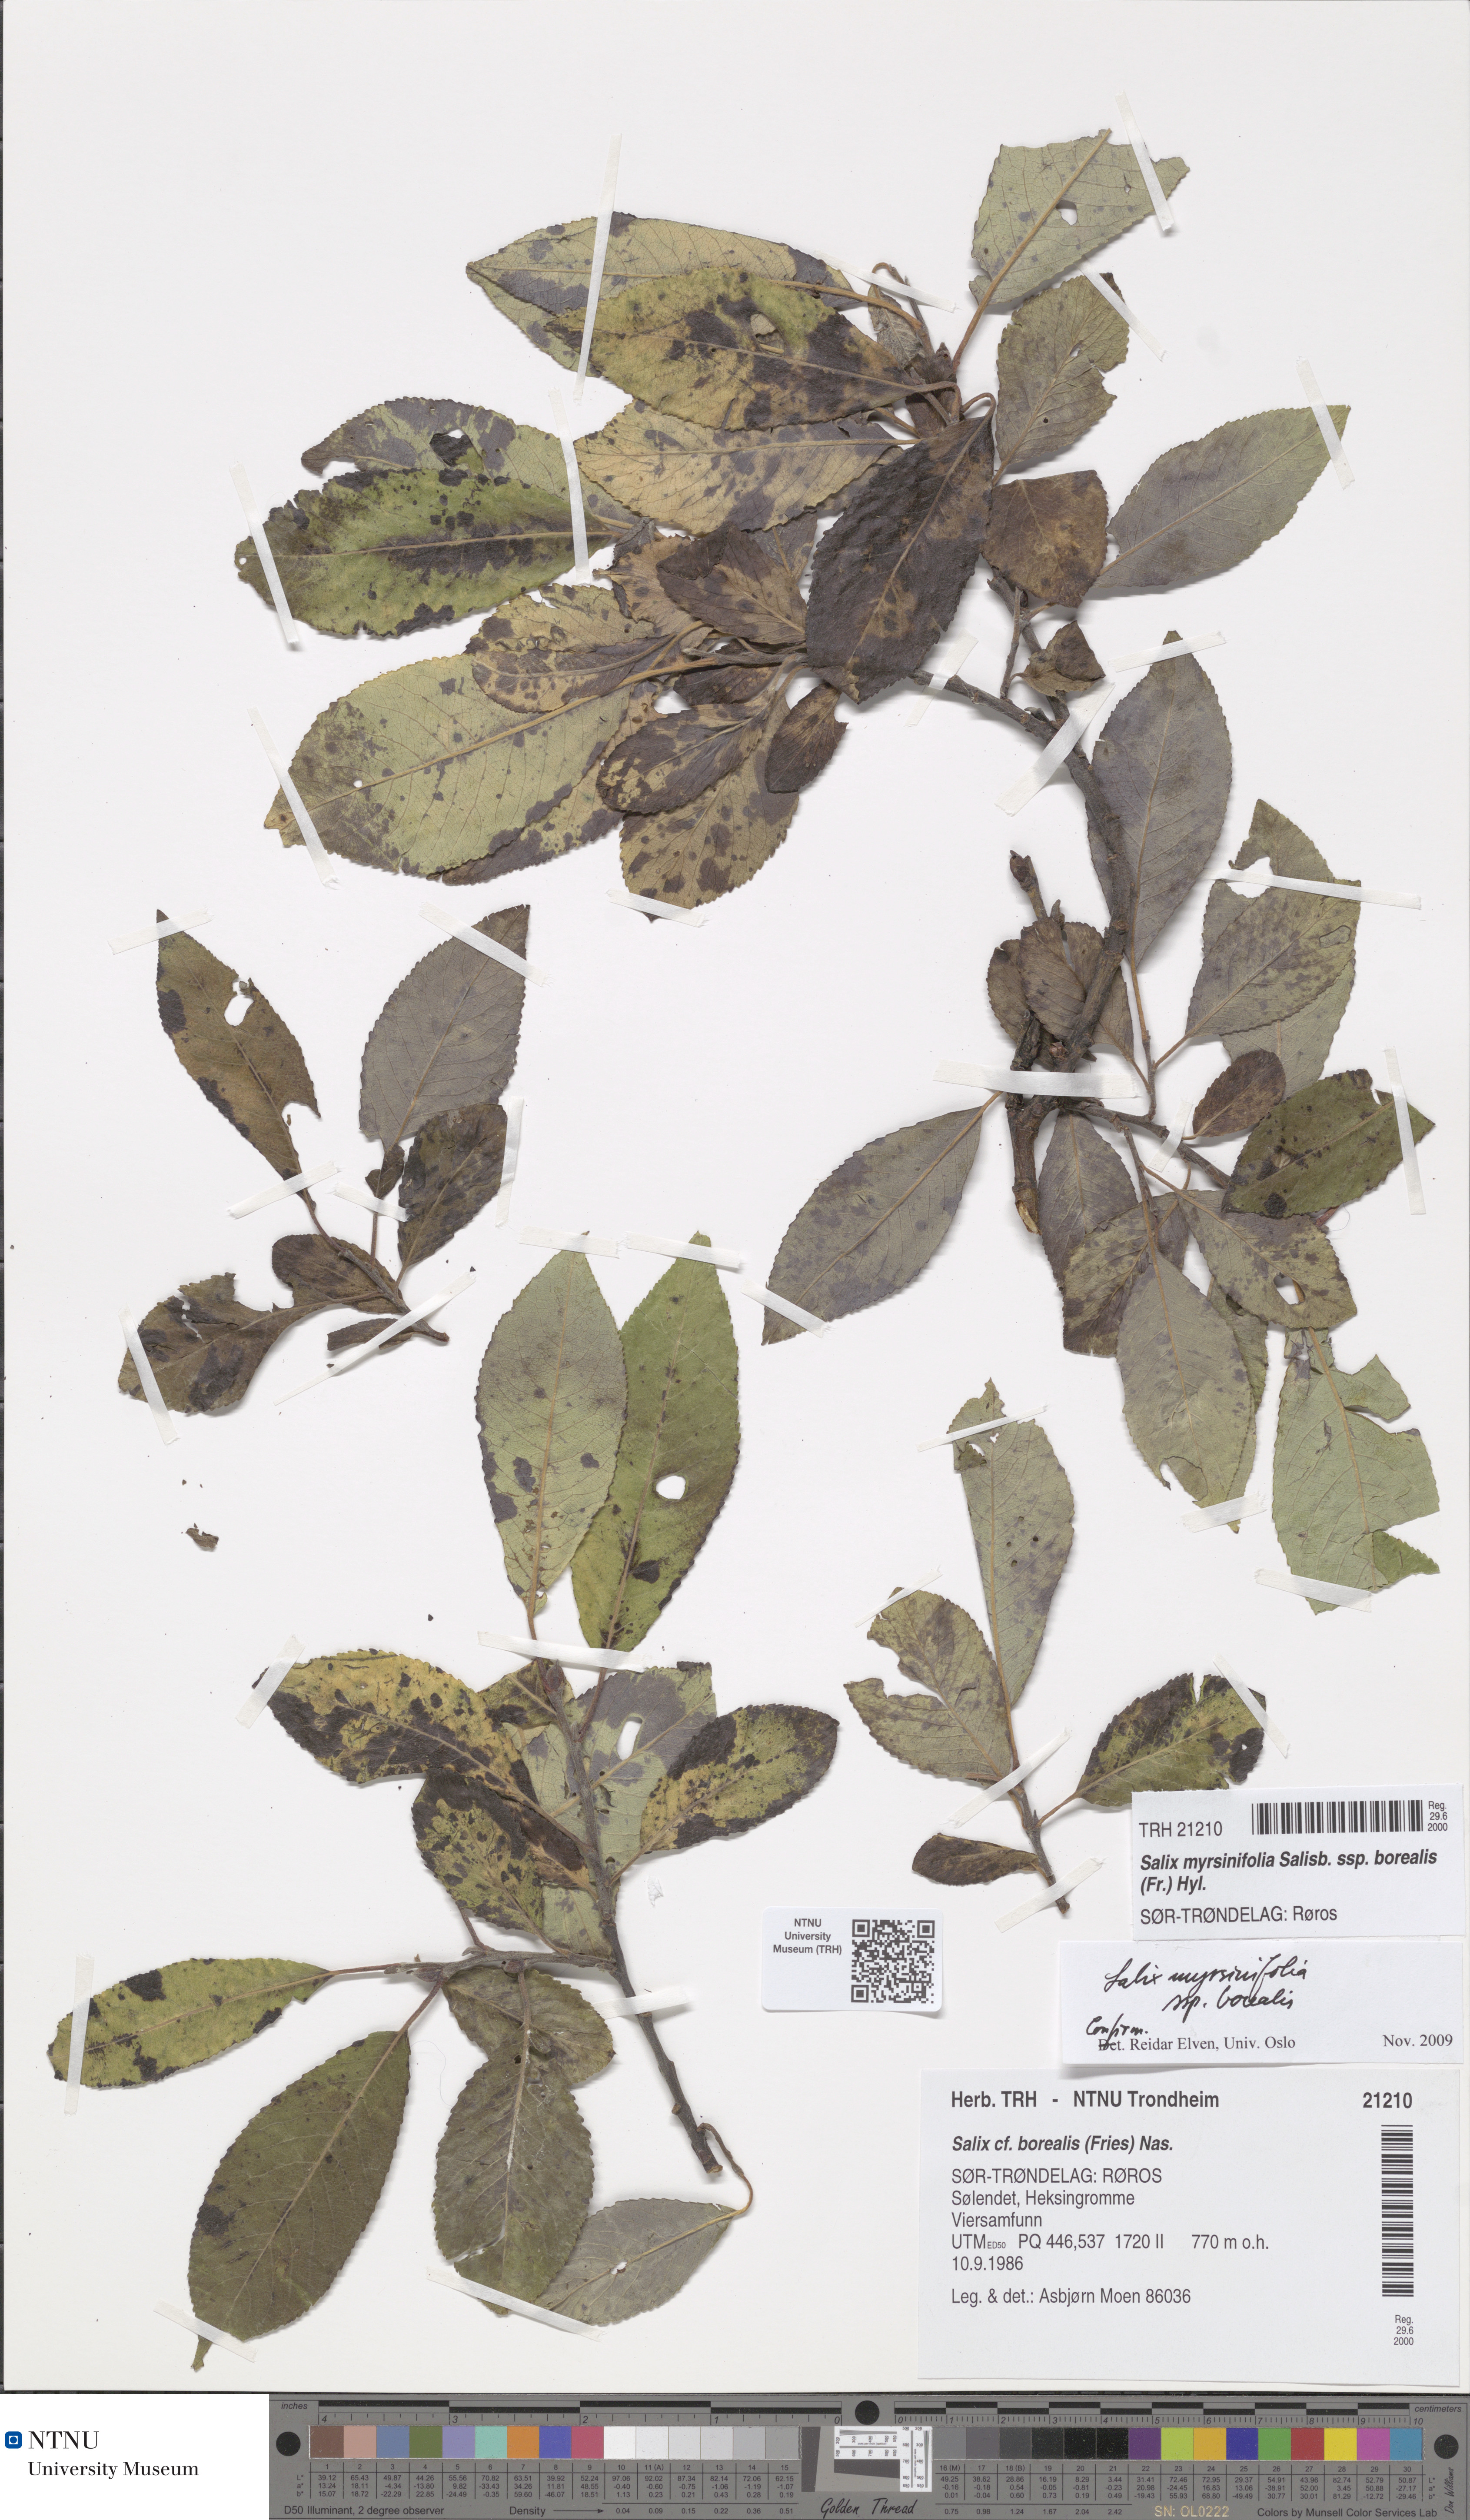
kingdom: Plantae
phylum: Tracheophyta
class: Magnoliopsida
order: Malpighiales
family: Salicaceae
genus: Salix
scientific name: Salix myrsinifolia
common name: Dark-leaved willow
